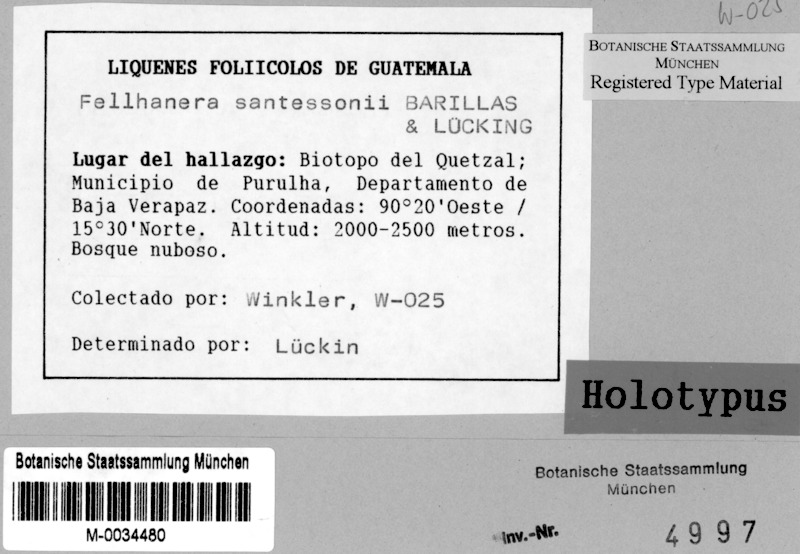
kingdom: Fungi
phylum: Ascomycota
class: Lecanoromycetes
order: Lecanorales
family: Byssolomataceae
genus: Fellhanera
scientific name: Fellhanera santessonii
